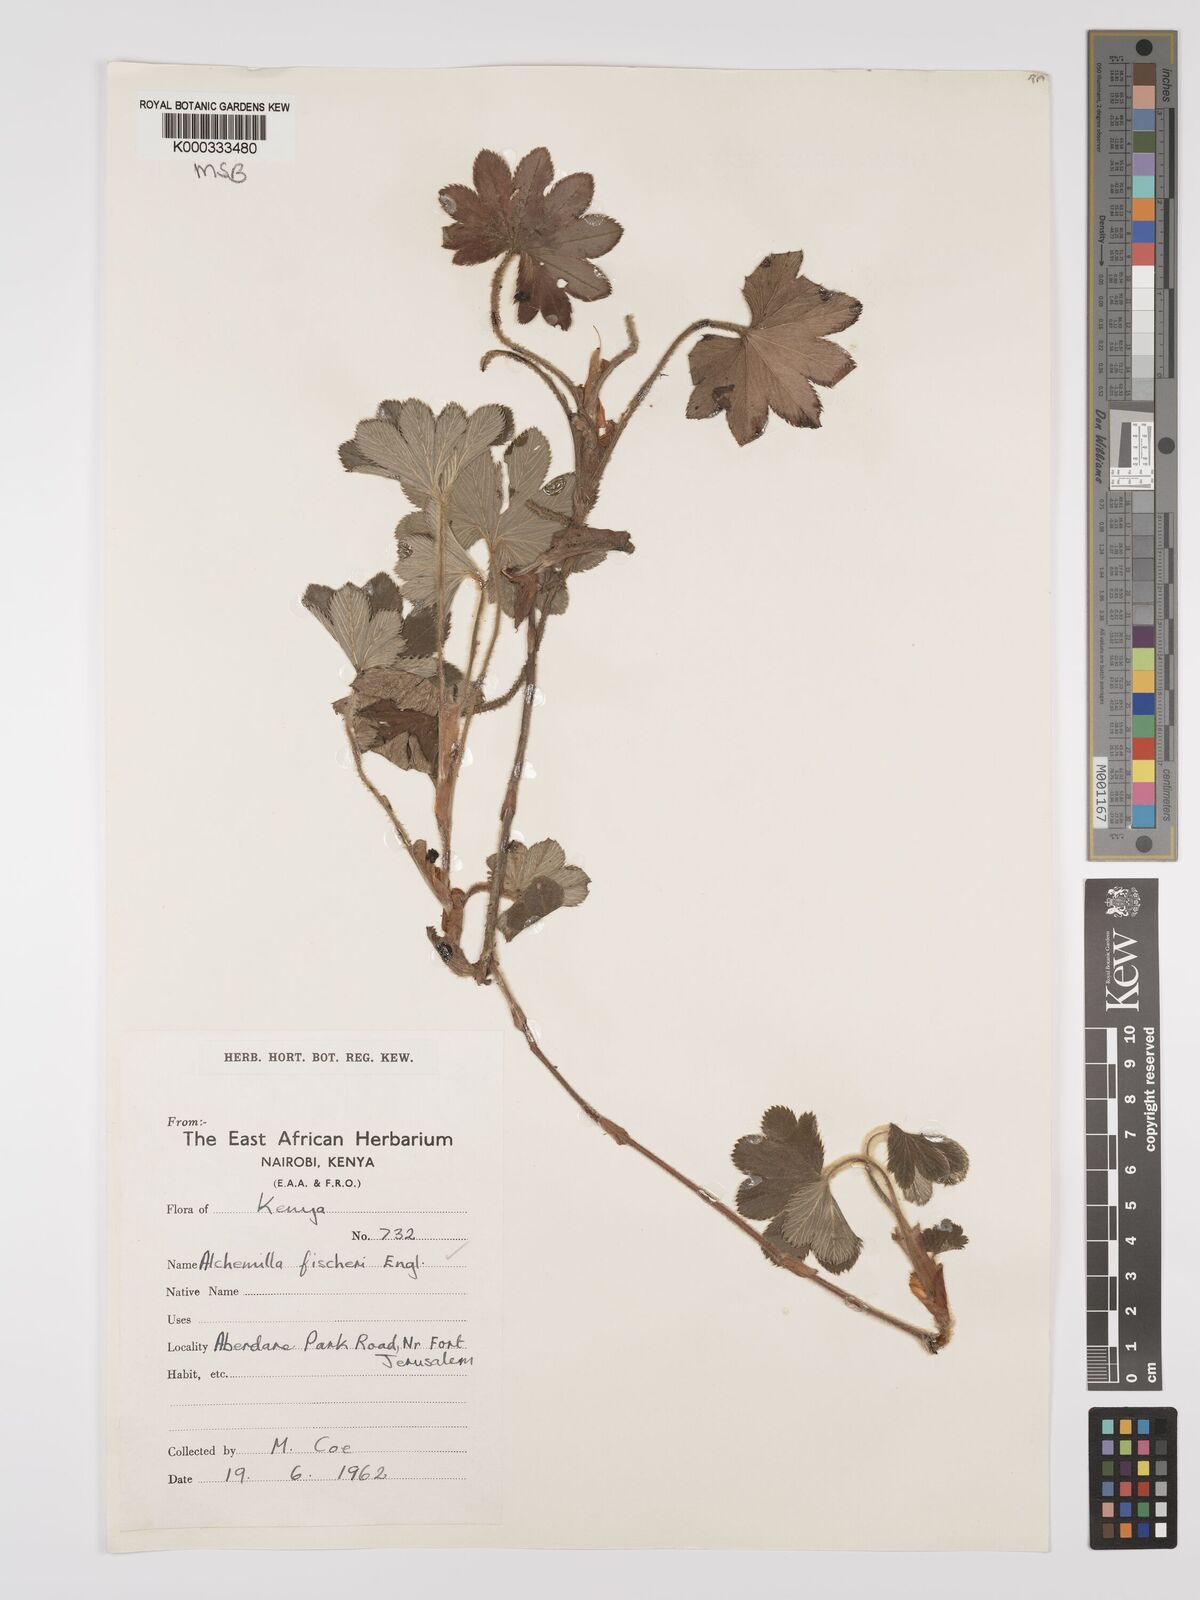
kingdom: Plantae
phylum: Tracheophyta
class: Magnoliopsida
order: Rosales
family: Rosaceae
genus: Alchemilla
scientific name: Alchemilla fischeri
